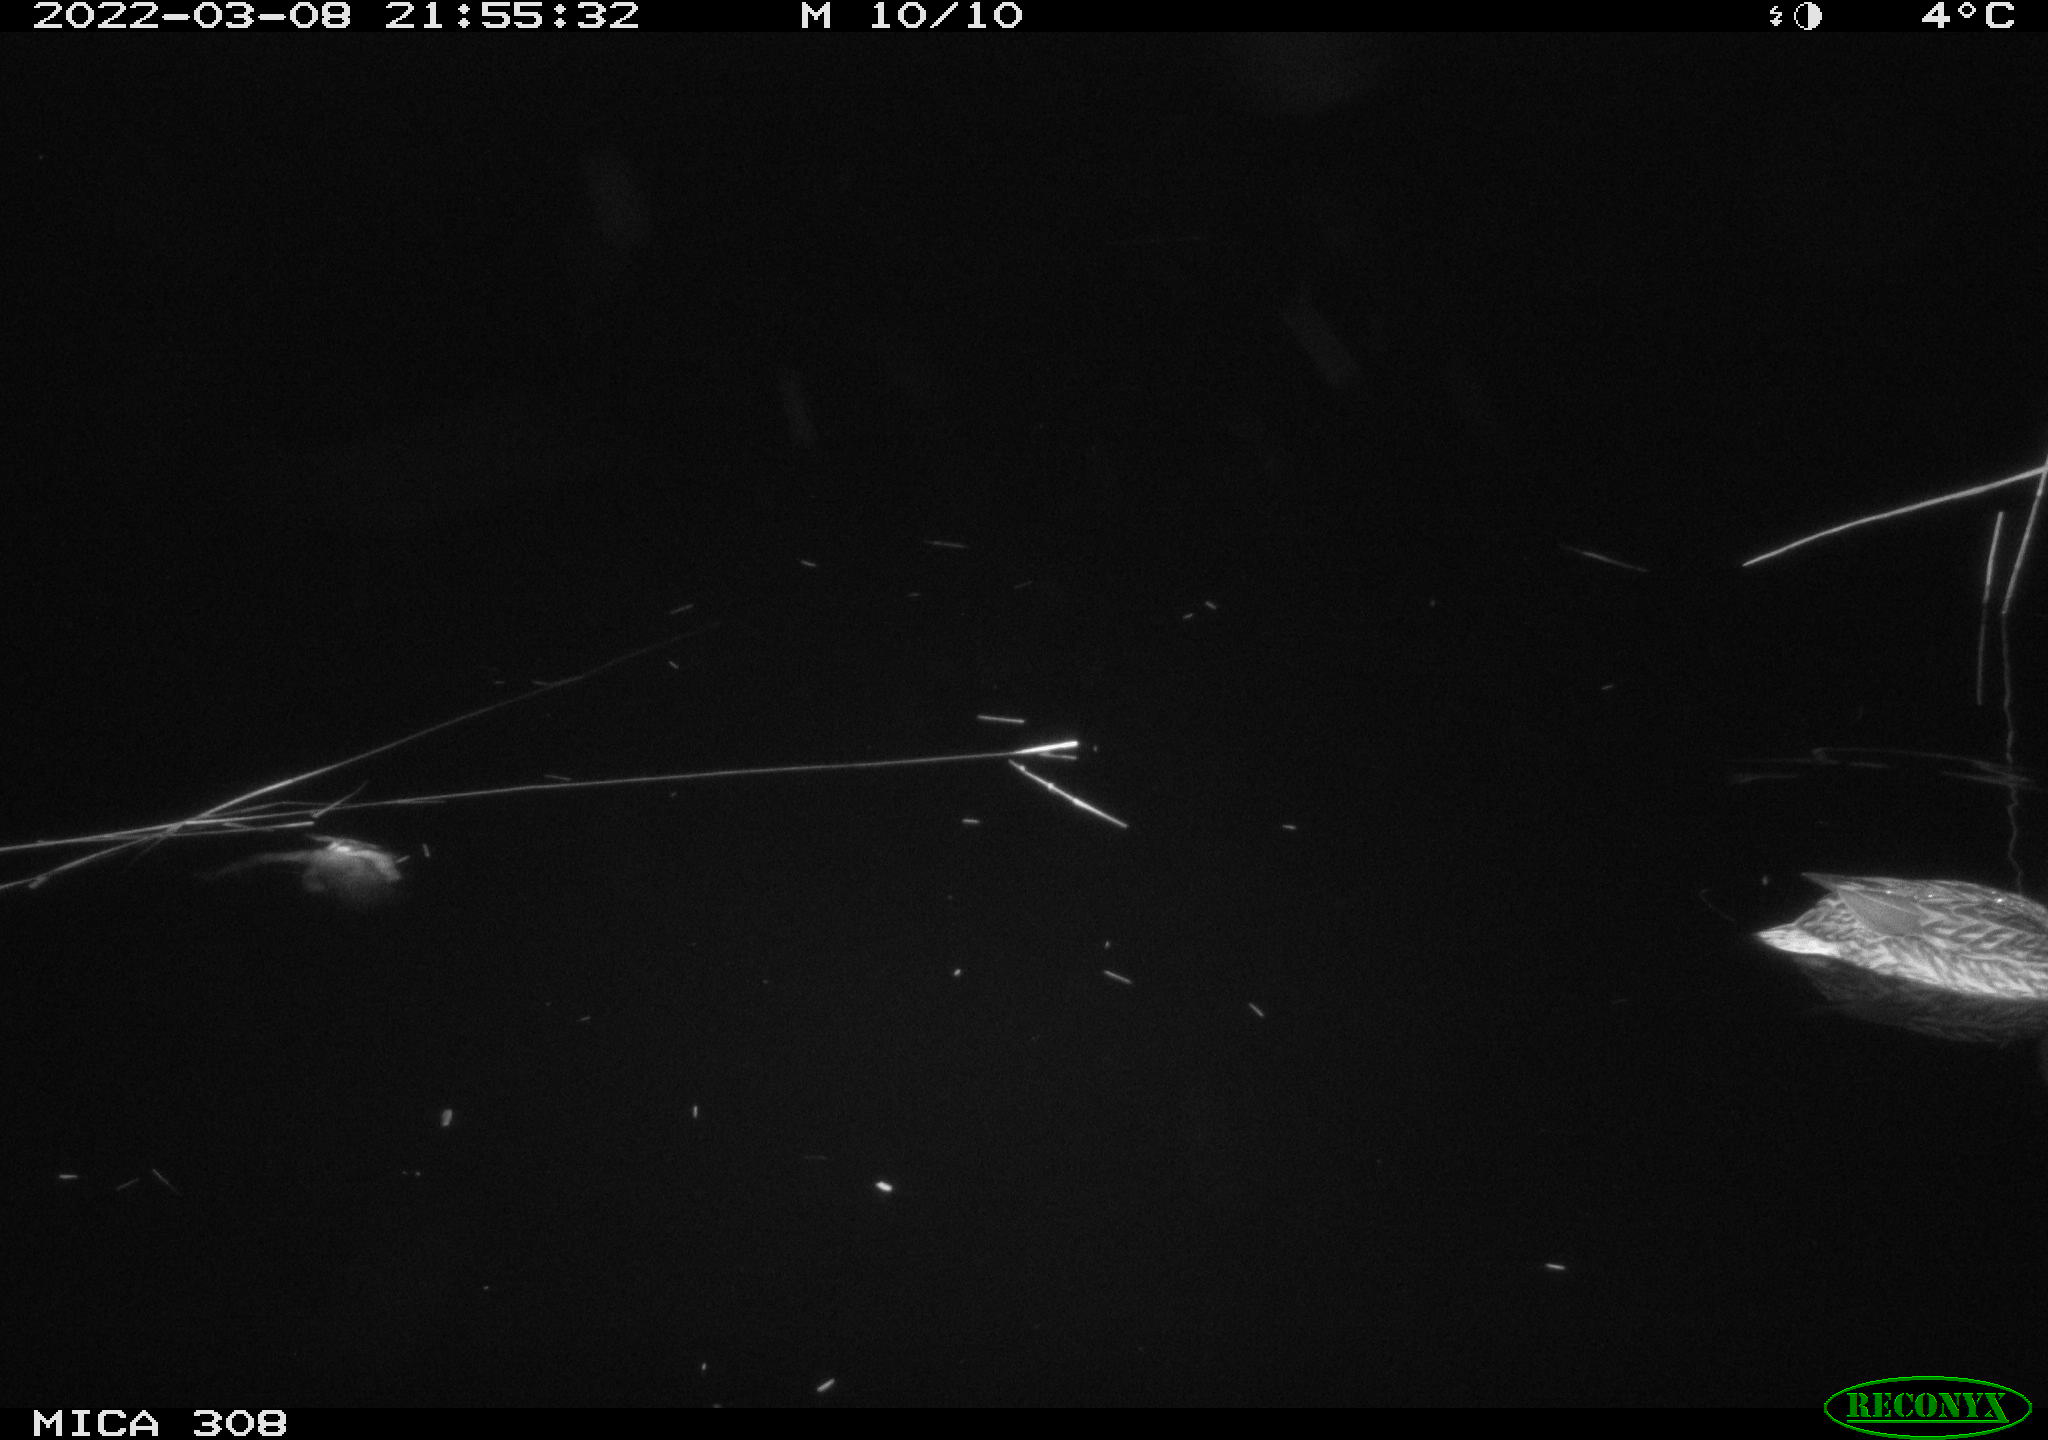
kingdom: Animalia
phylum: Chordata
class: Mammalia
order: Rodentia
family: Cricetidae
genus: Ondatra
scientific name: Ondatra zibethicus
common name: Muskrat
